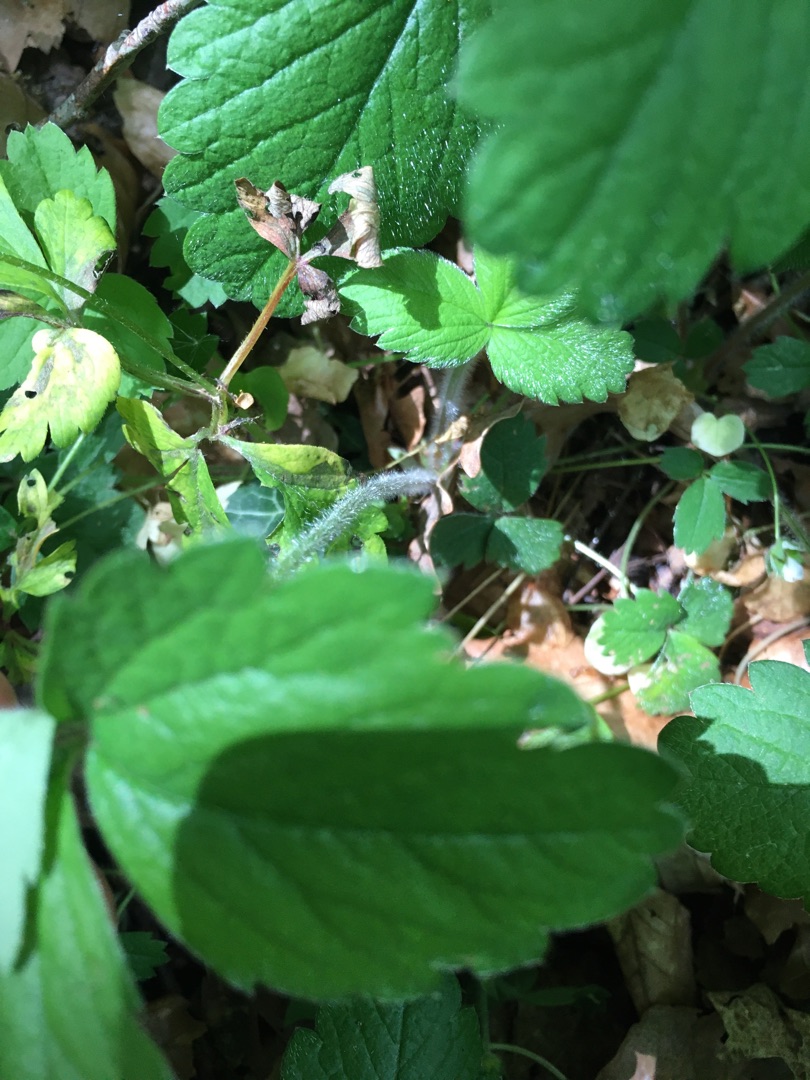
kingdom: Plantae
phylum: Tracheophyta
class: Magnoliopsida
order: Rosales
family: Rosaceae
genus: Potentilla
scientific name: Potentilla sterilis
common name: Jordbær-potentil
